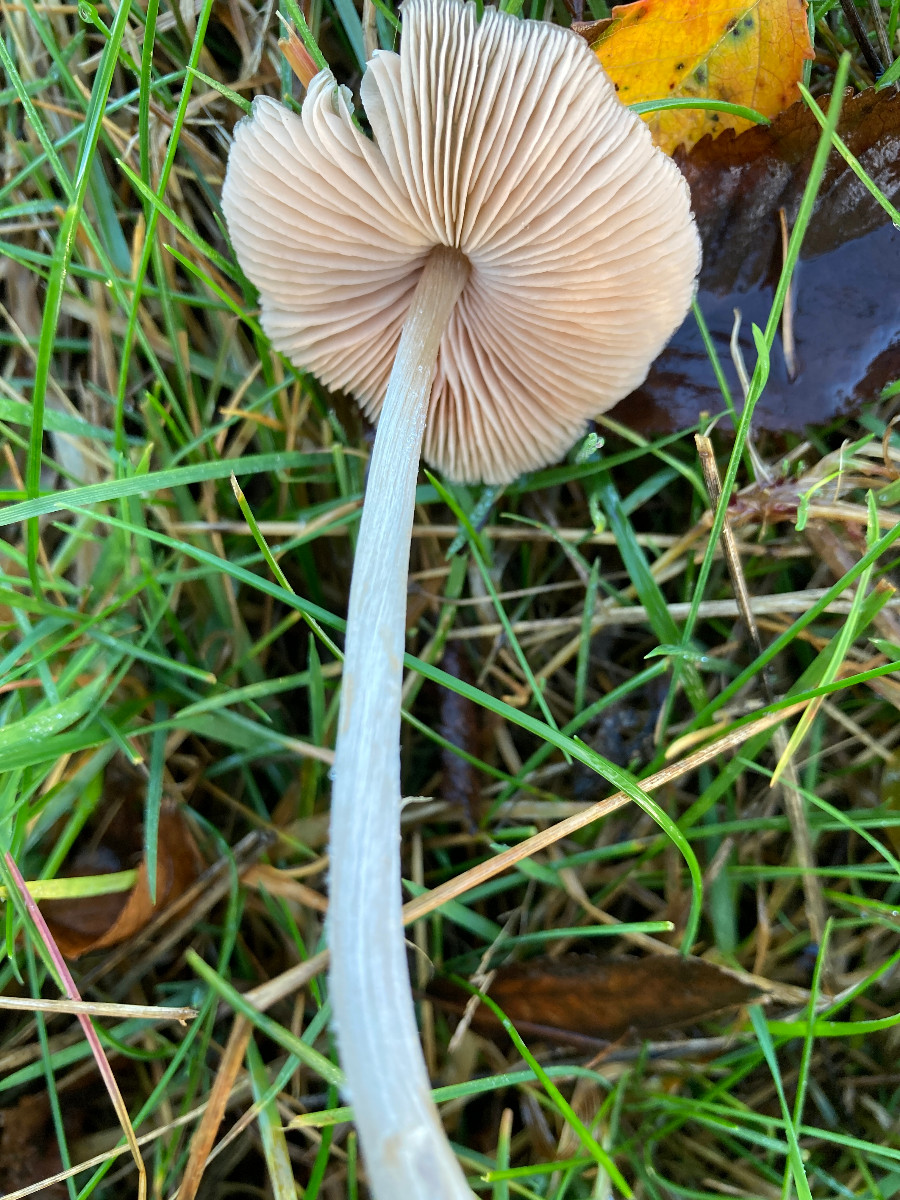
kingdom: Fungi
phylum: Basidiomycota
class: Agaricomycetes
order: Agaricales
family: Entolomataceae
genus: Entoloma
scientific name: Entoloma
